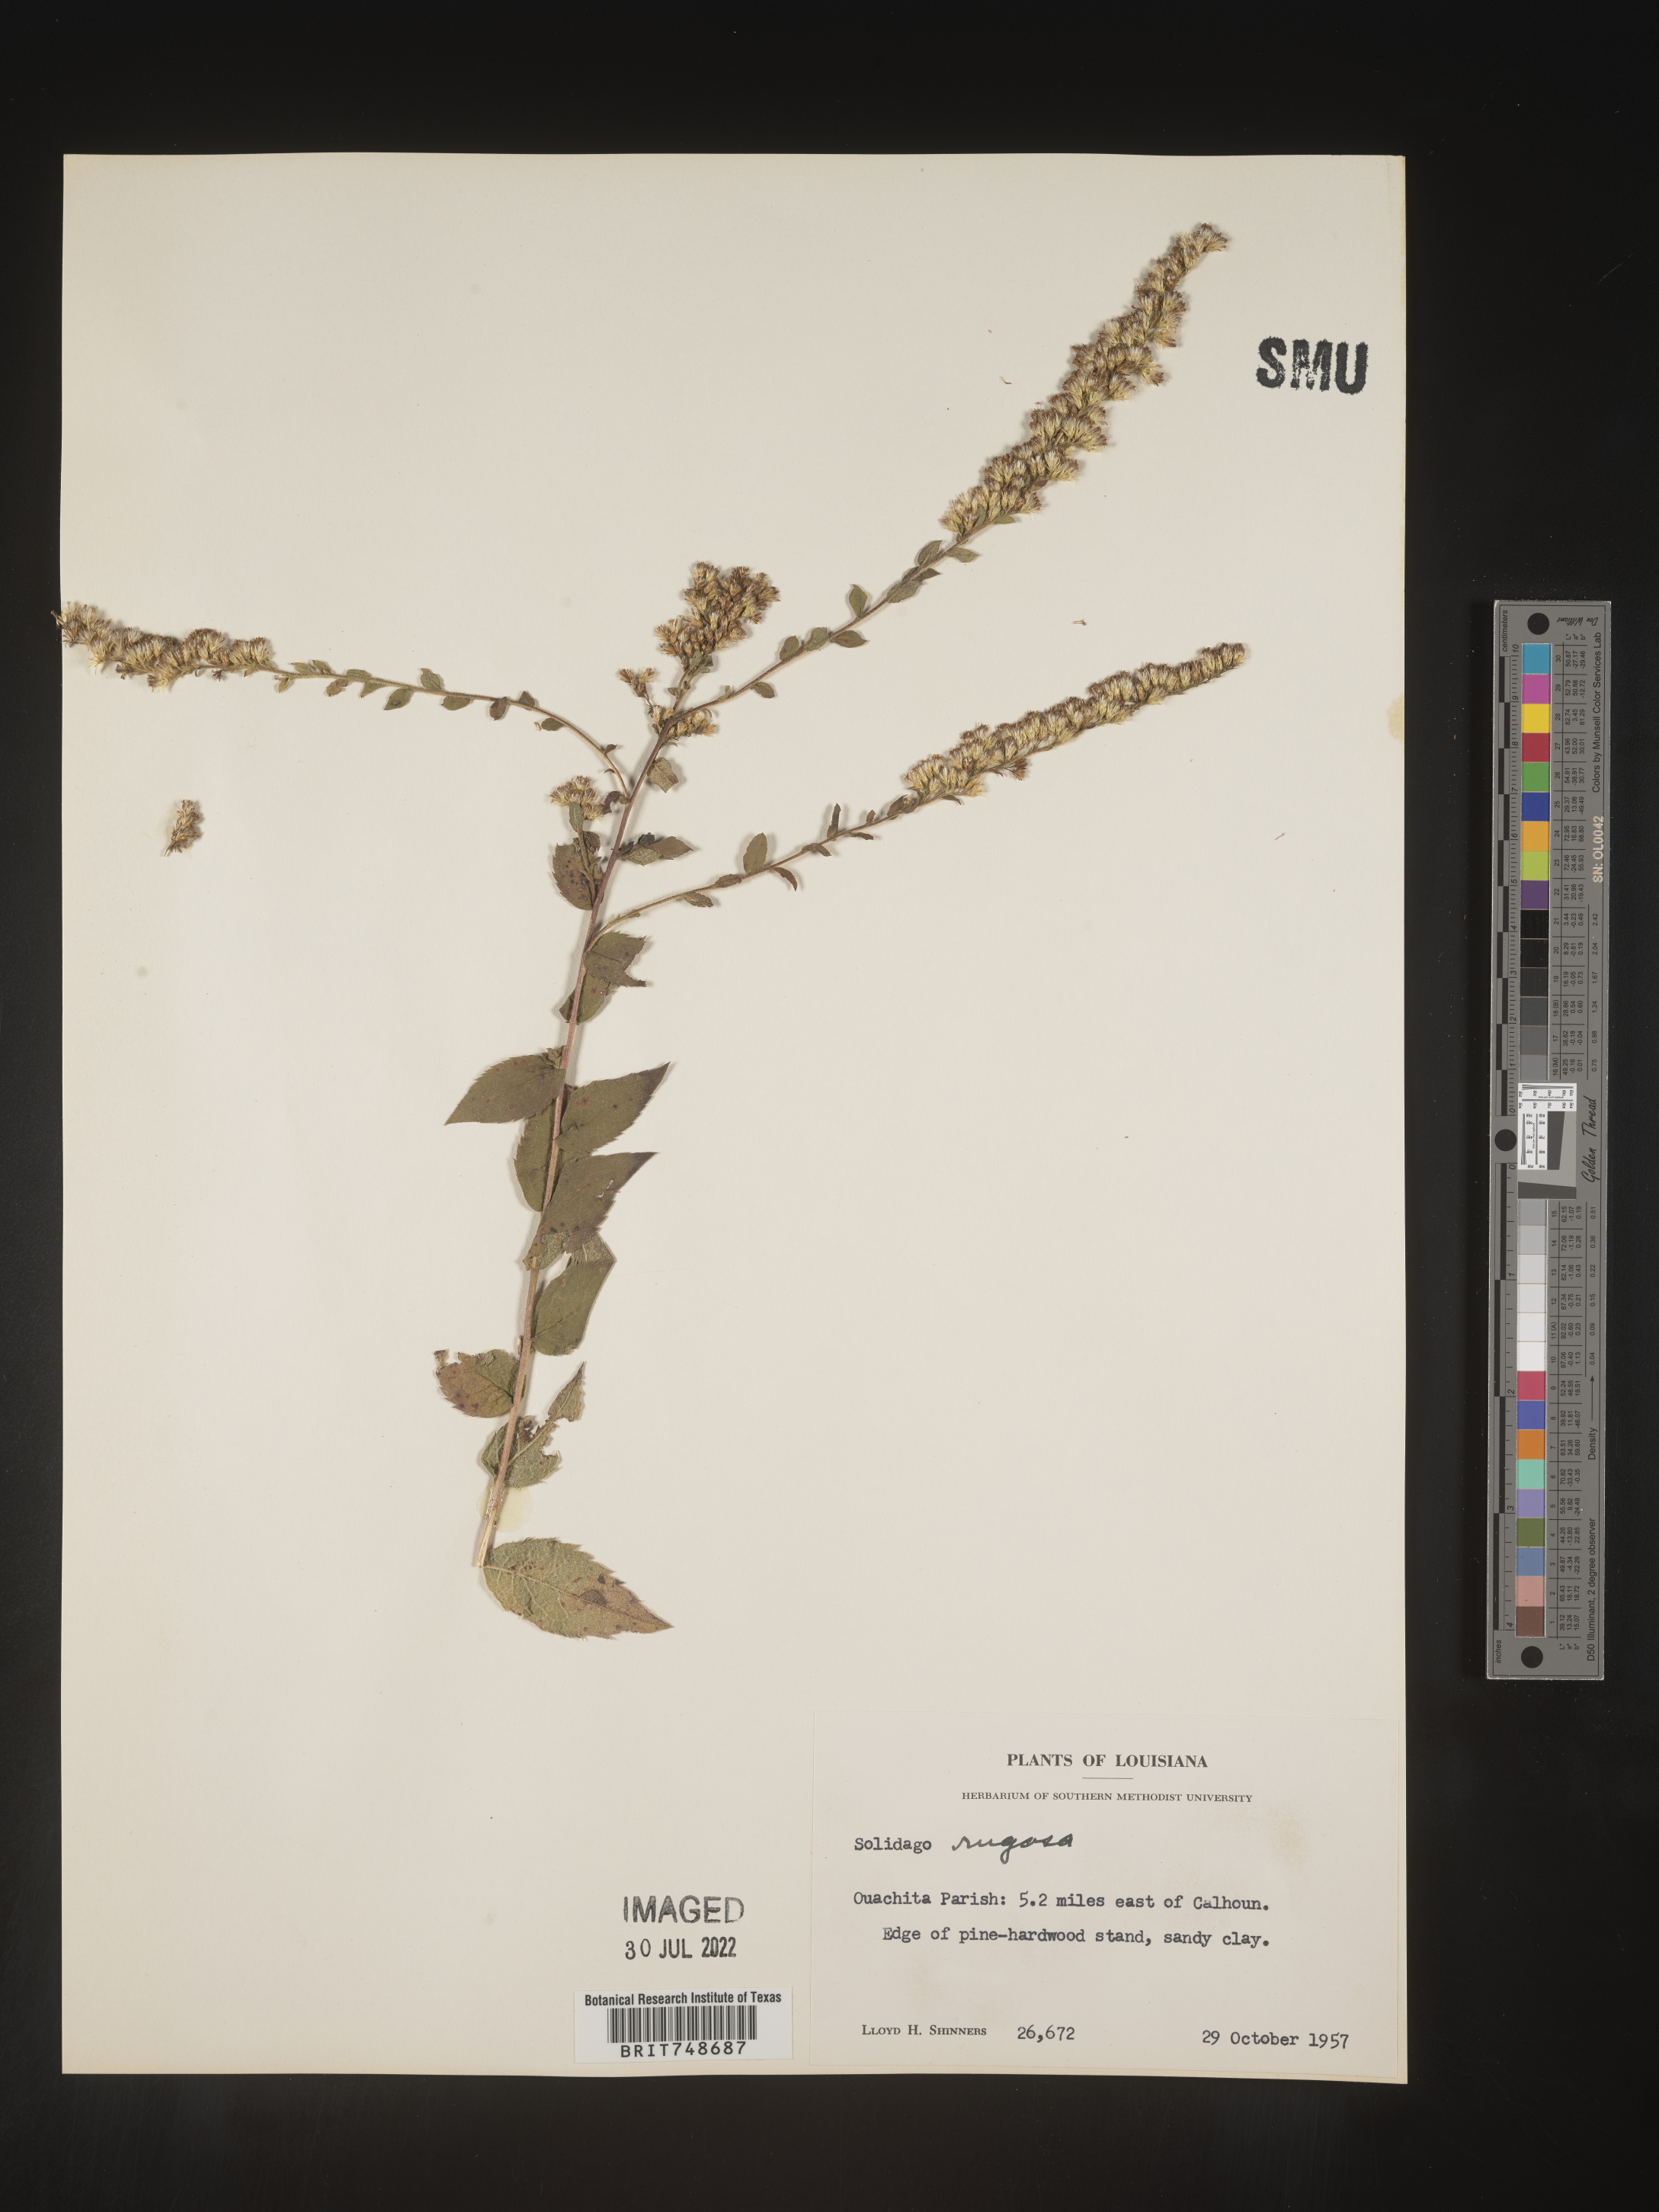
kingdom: Plantae
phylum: Tracheophyta
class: Magnoliopsida
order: Asterales
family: Asteraceae
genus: Solidago
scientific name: Solidago rugosa
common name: Rough-stemmed goldenrod
